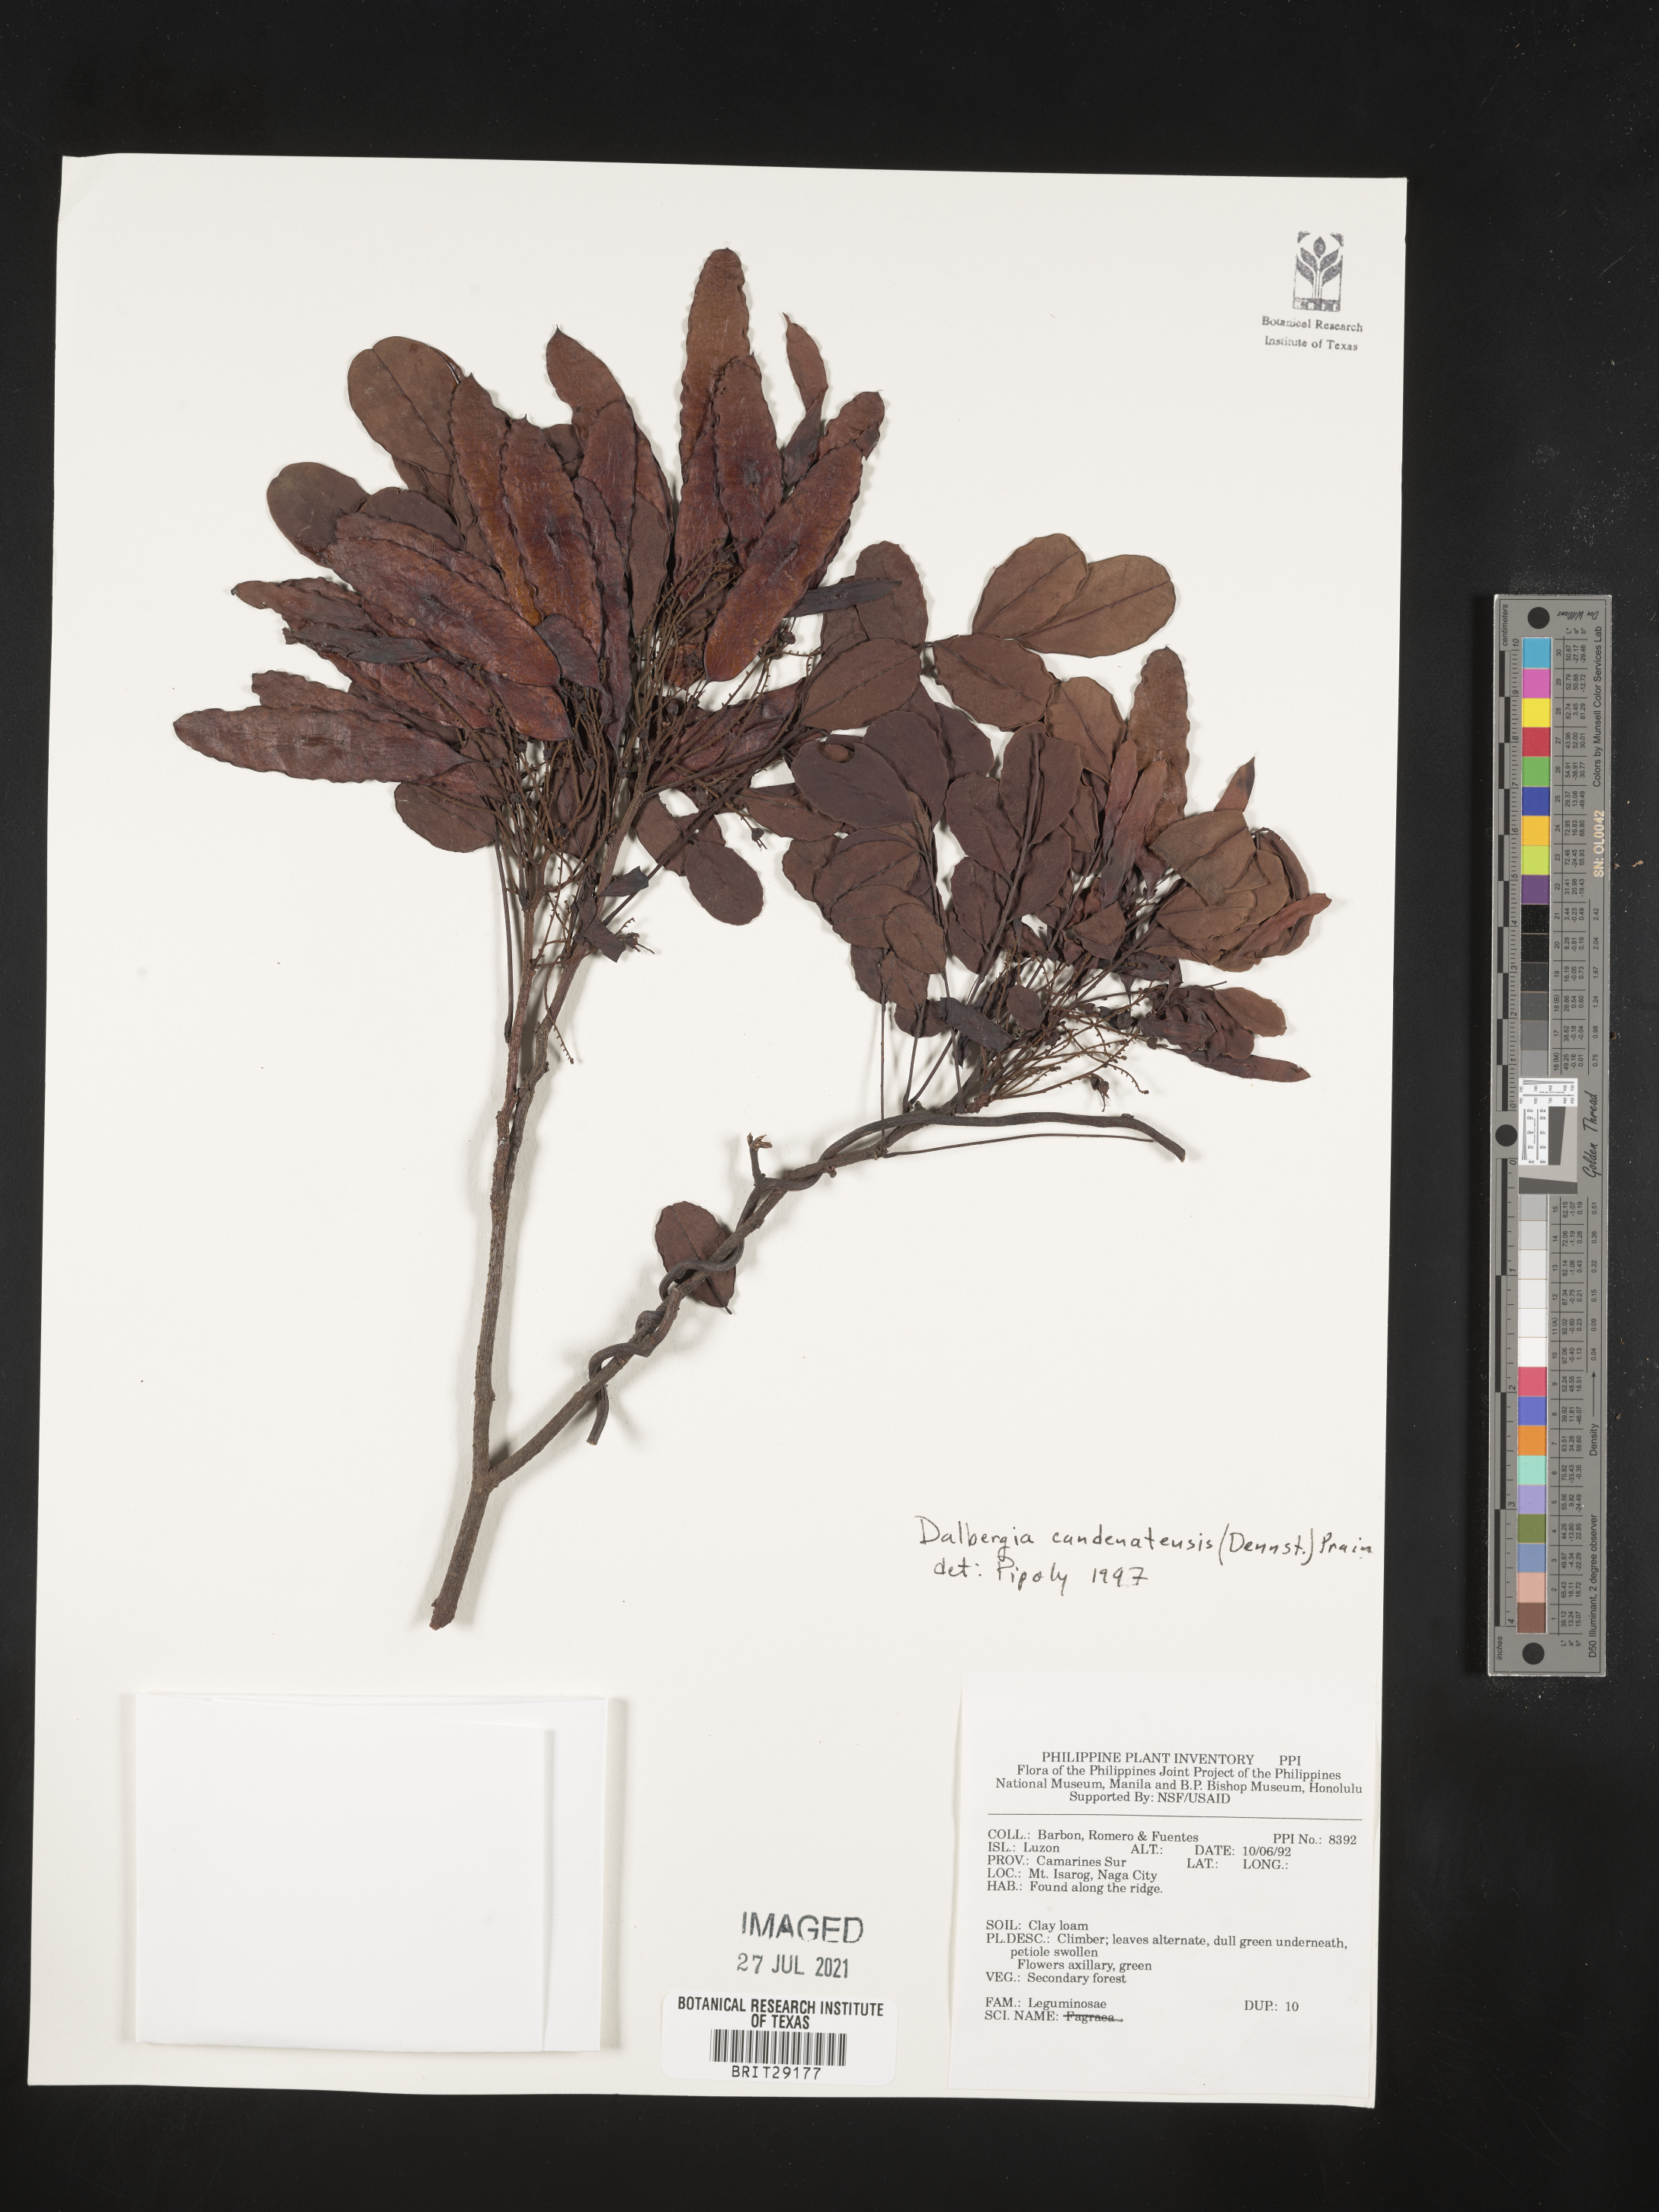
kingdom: Plantae
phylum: Tracheophyta
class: Magnoliopsida
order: Fabales
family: Fabaceae
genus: Dalbergia
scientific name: Dalbergia candenatensis
